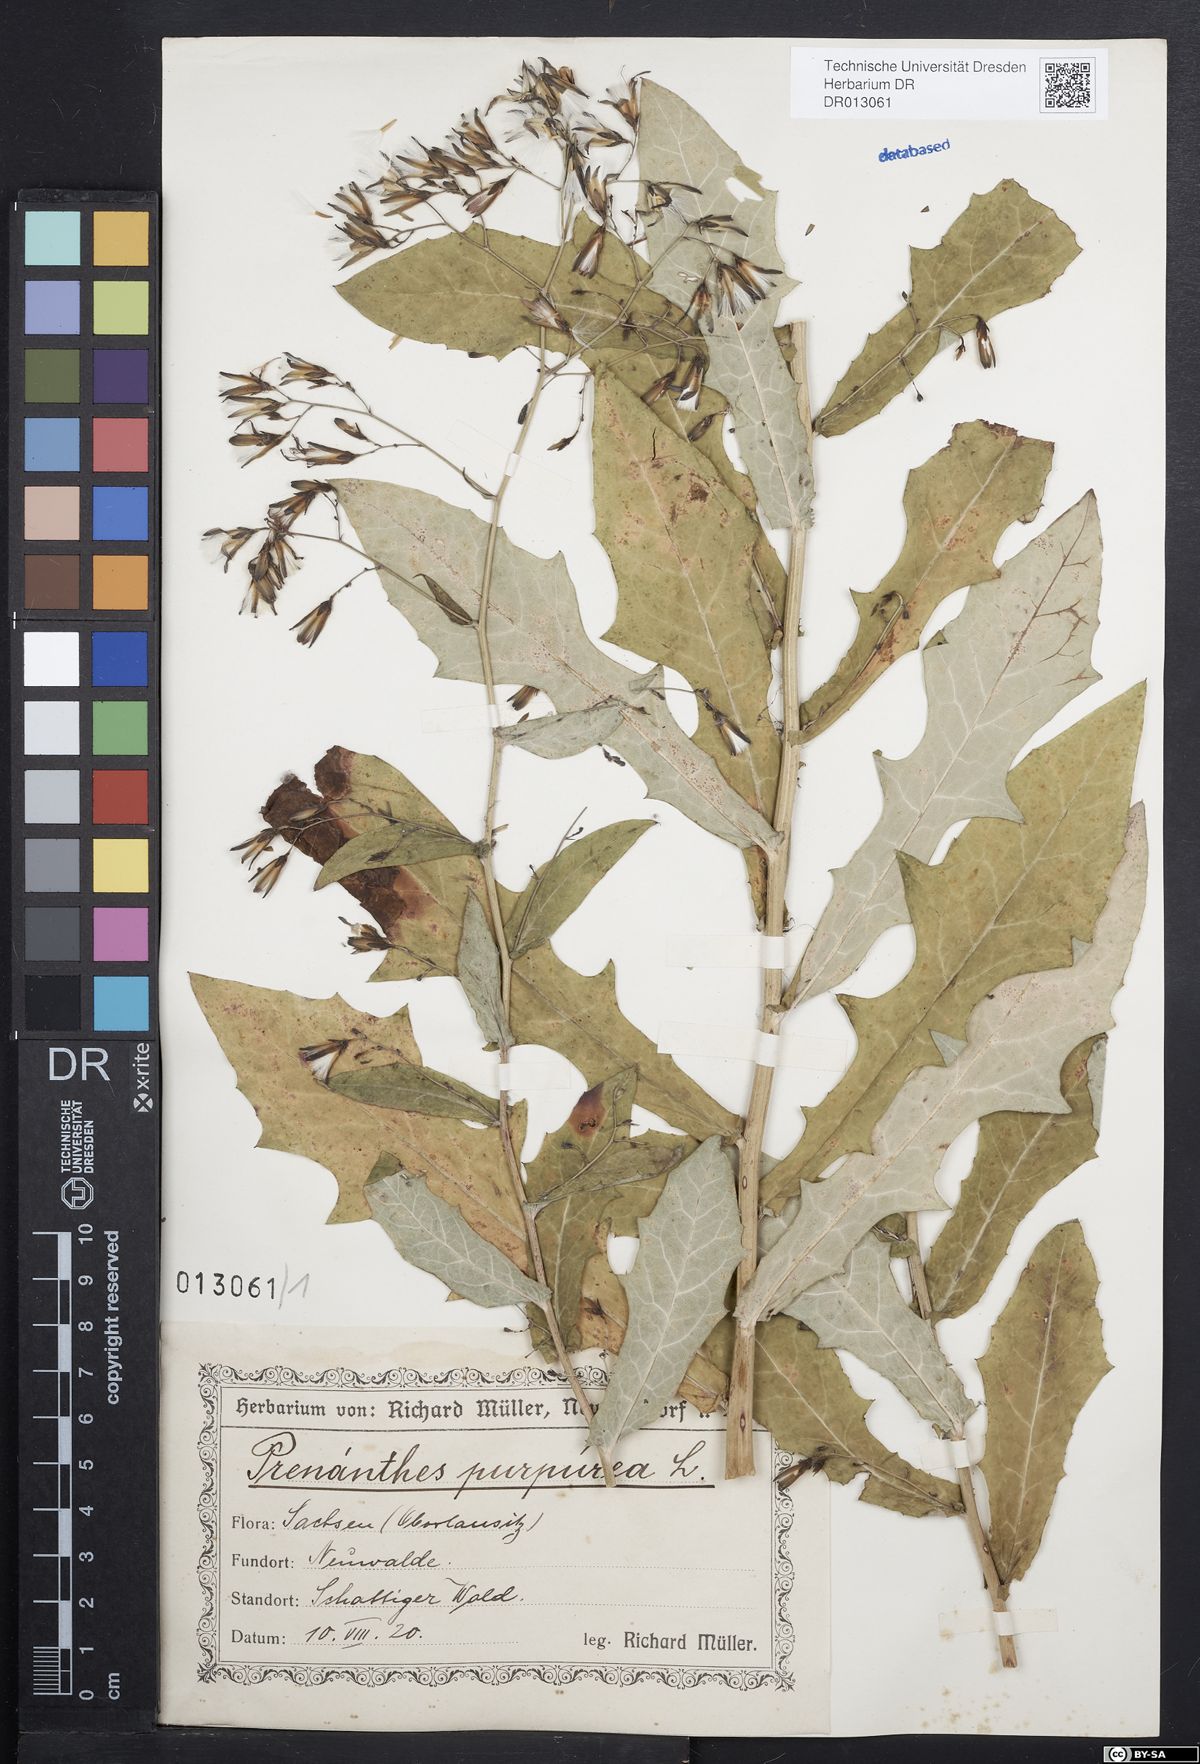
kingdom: Plantae
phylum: Tracheophyta
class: Magnoliopsida
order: Asterales
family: Asteraceae
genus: Prenanthes
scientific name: Prenanthes purpurea
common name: Purple lettuce
